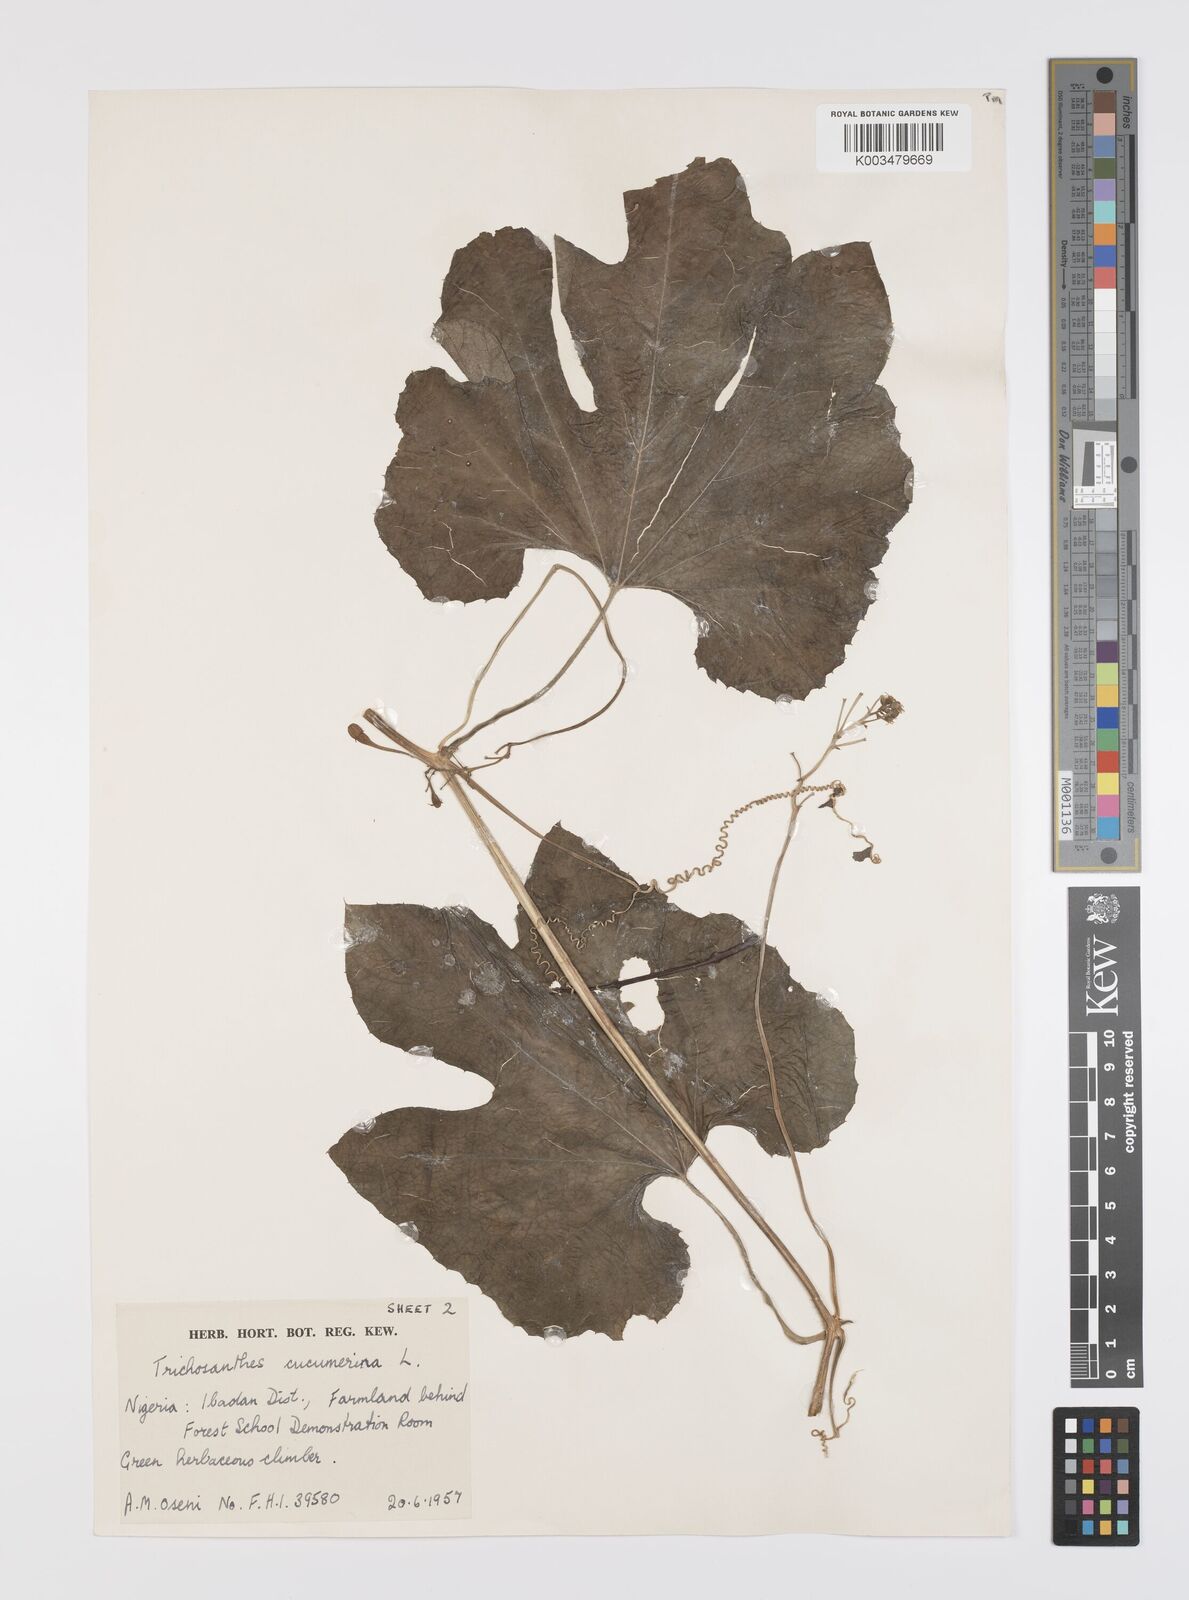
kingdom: Plantae
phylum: Tracheophyta
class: Magnoliopsida
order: Cucurbitales
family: Cucurbitaceae
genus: Trichosanthes
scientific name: Trichosanthes cucumerina
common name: Snakegourd
